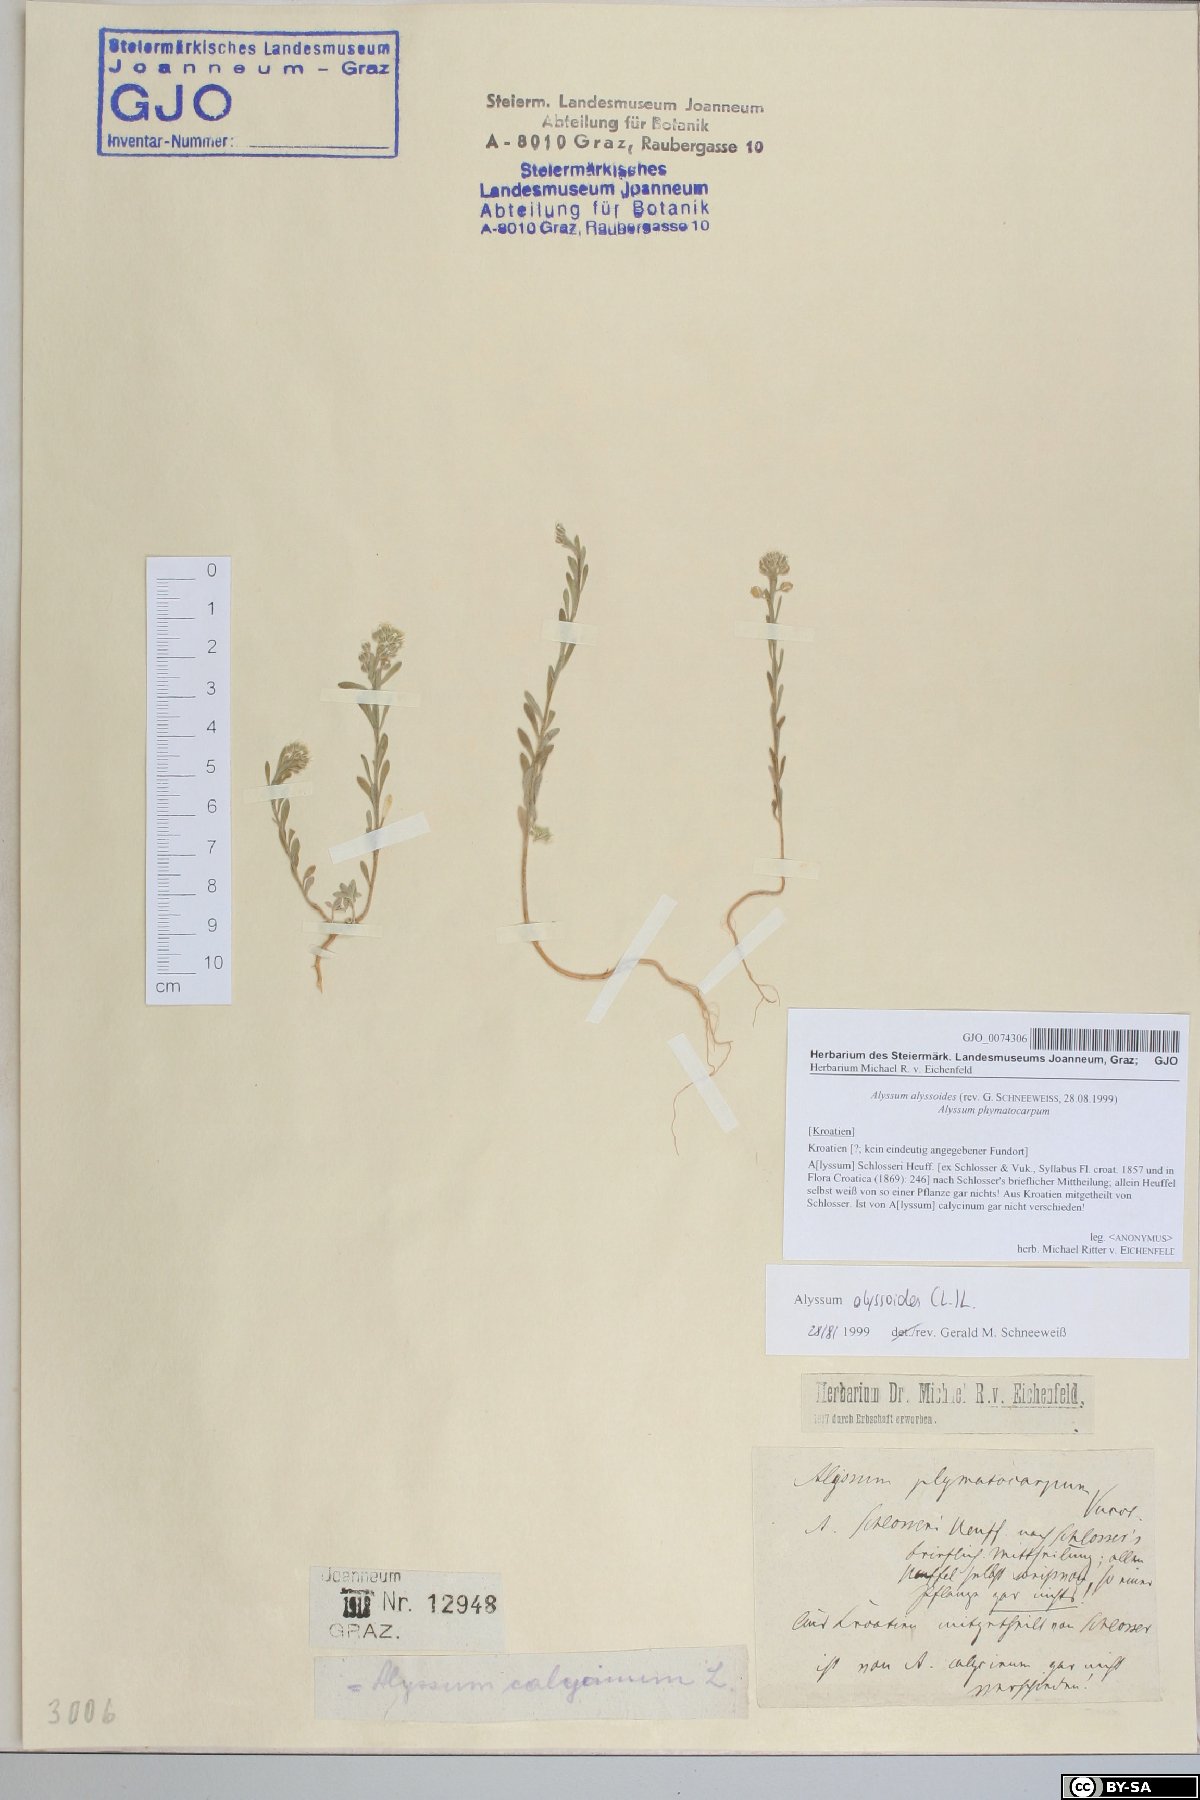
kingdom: Plantae
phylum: Tracheophyta
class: Magnoliopsida
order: Brassicales
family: Brassicaceae
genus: Alyssum
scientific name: Alyssum alyssoides
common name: Small alison
